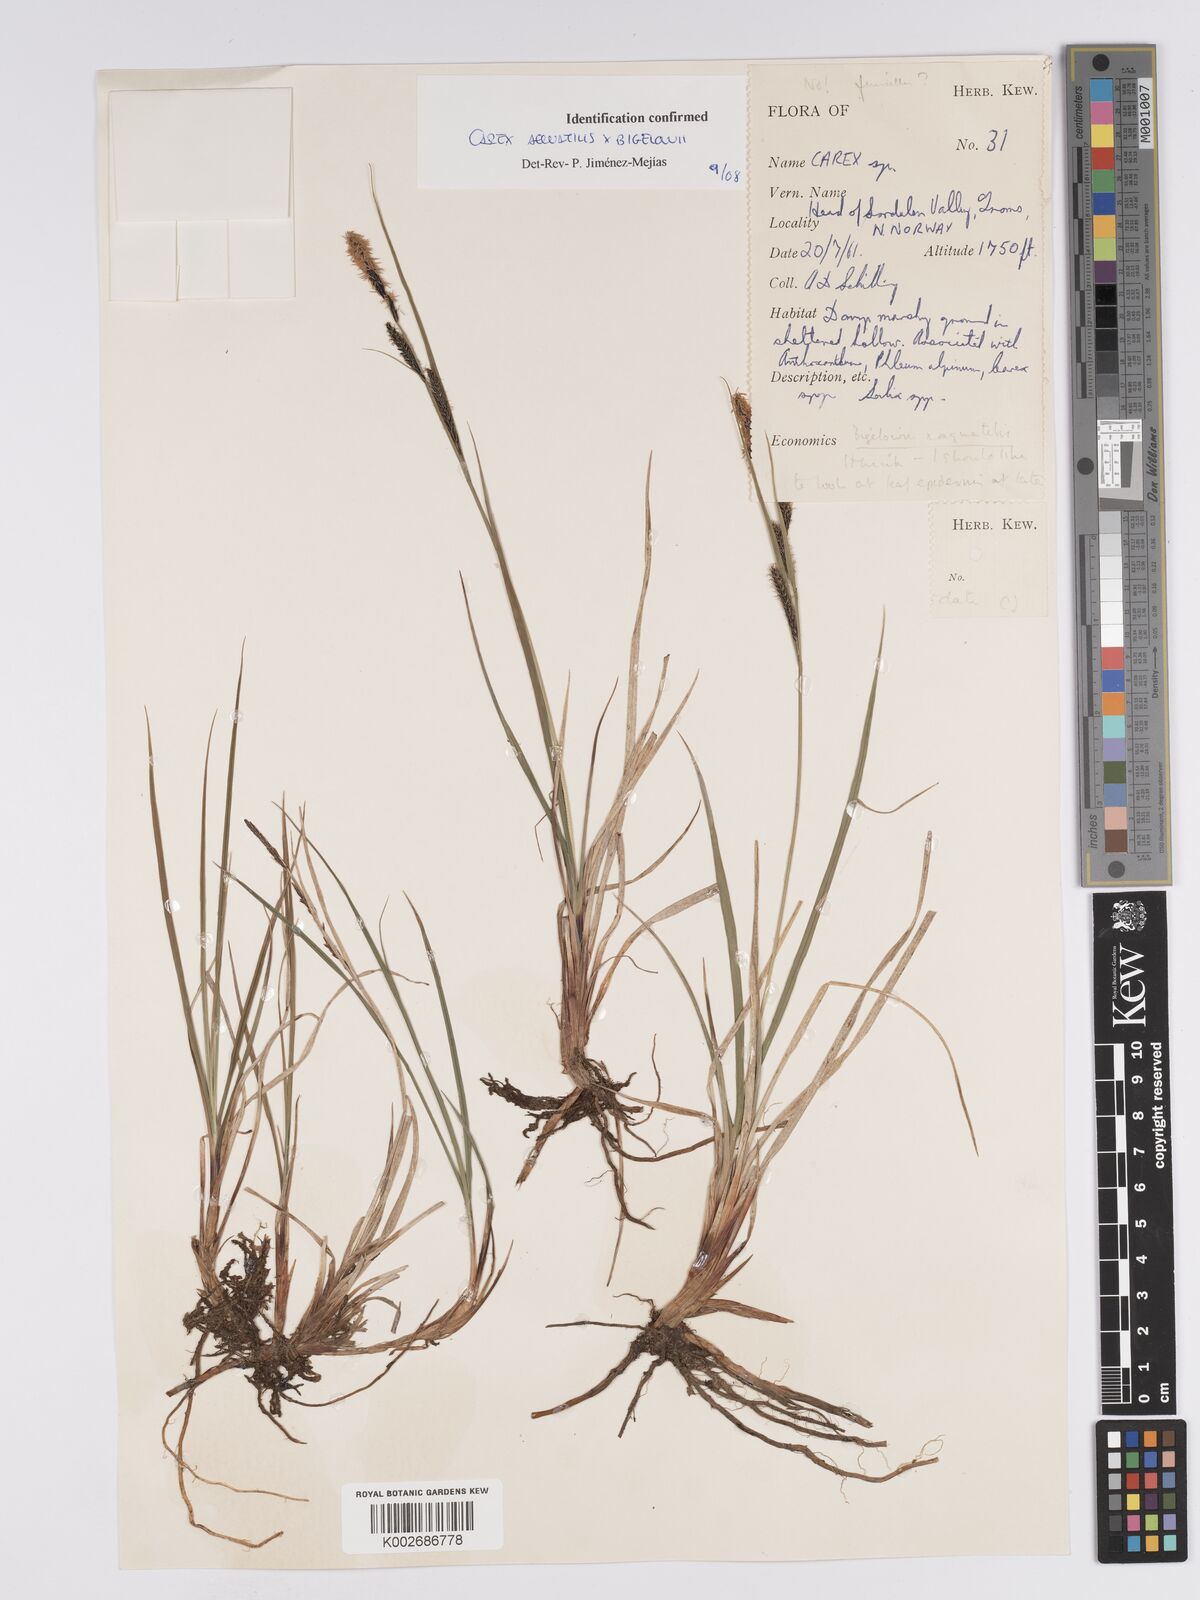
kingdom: Plantae
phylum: Tracheophyta
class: Liliopsida
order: Poales
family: Cyperaceae
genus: Carex
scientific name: Carex aquatilis
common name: Water sedge
